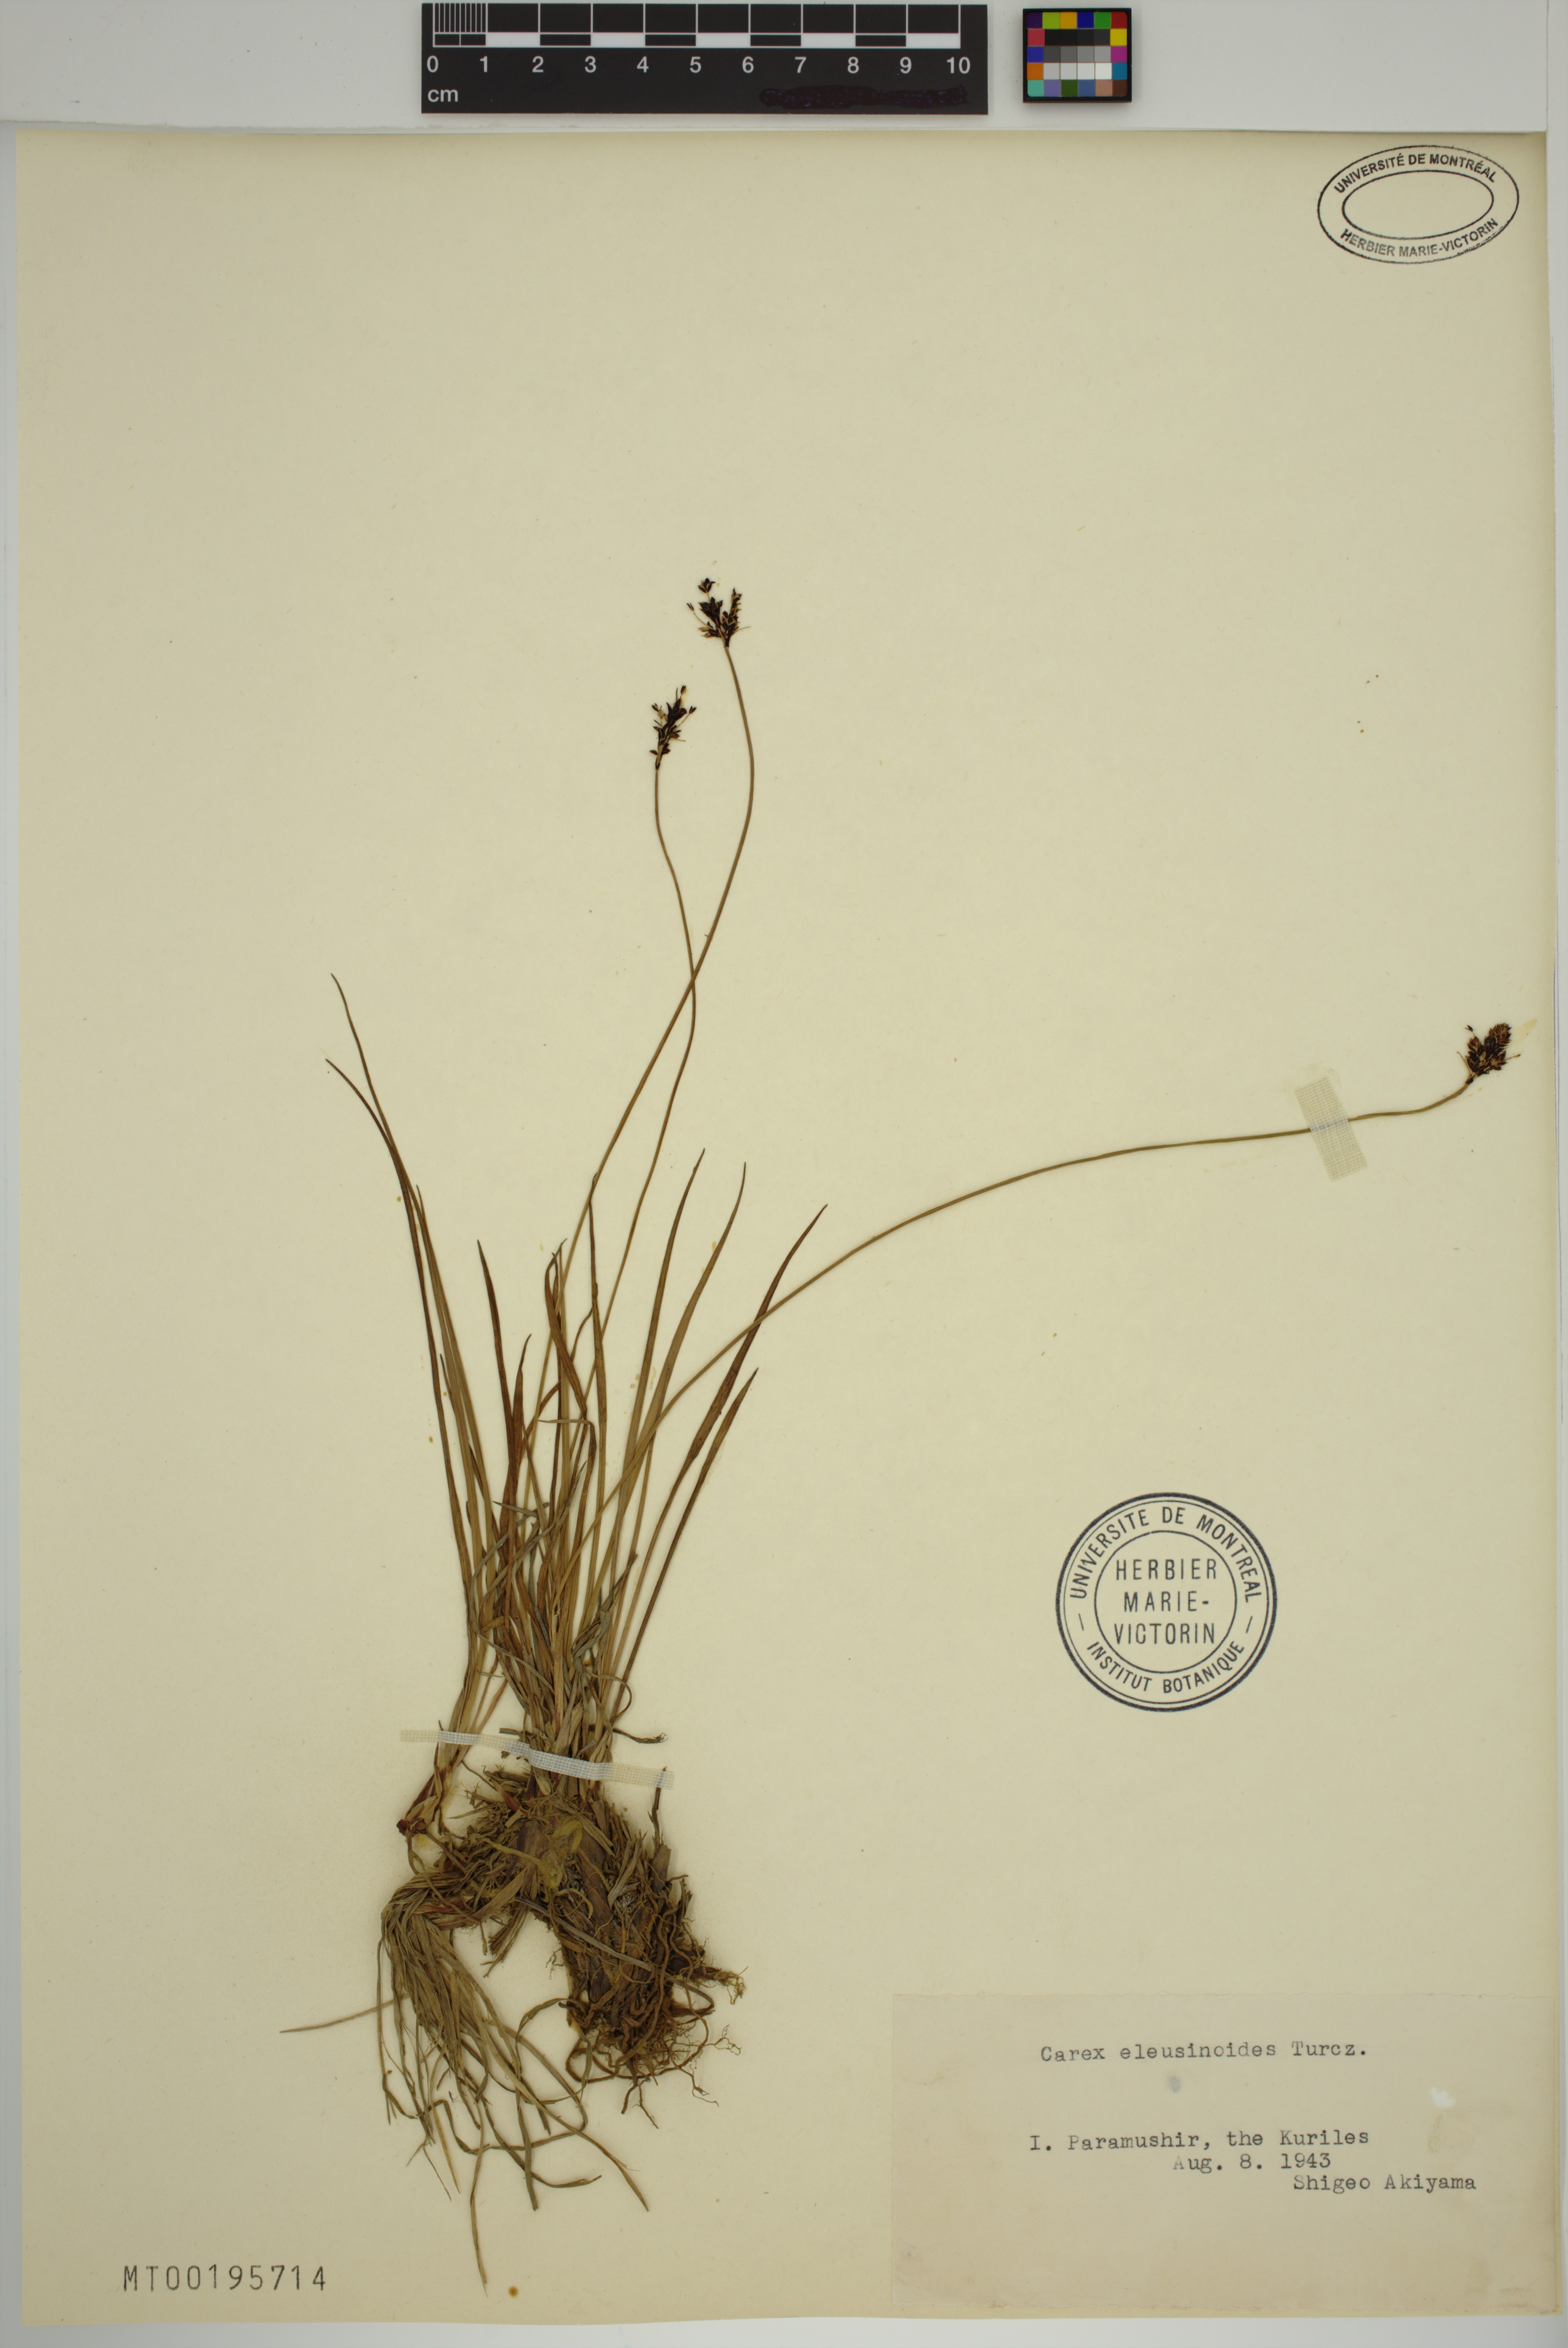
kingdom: Plantae
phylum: Tracheophyta
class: Liliopsida
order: Poales
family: Cyperaceae
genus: Carex
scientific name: Carex eleusinoides
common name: Goosegrass sedge
